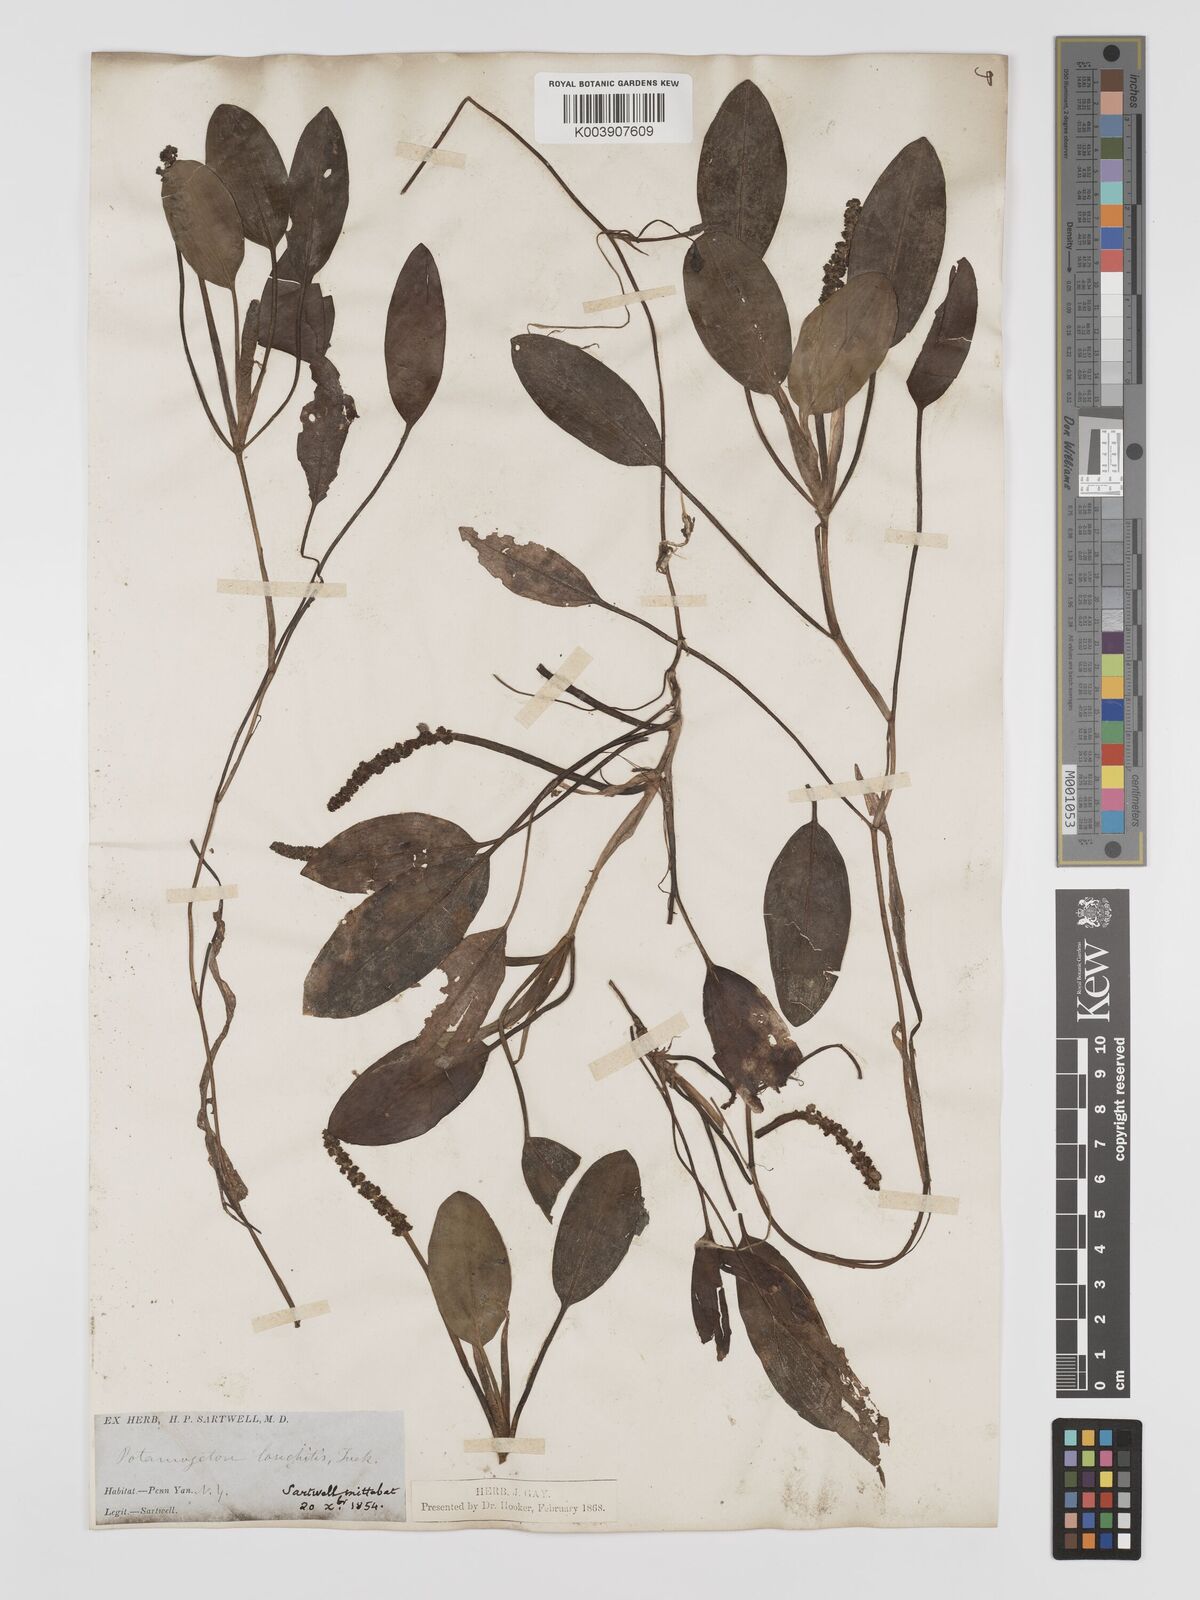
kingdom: Plantae
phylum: Tracheophyta
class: Liliopsida
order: Alismatales
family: Potamogetonaceae
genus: Potamogeton
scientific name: Potamogeton nodosus
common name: Loddon pondweed
